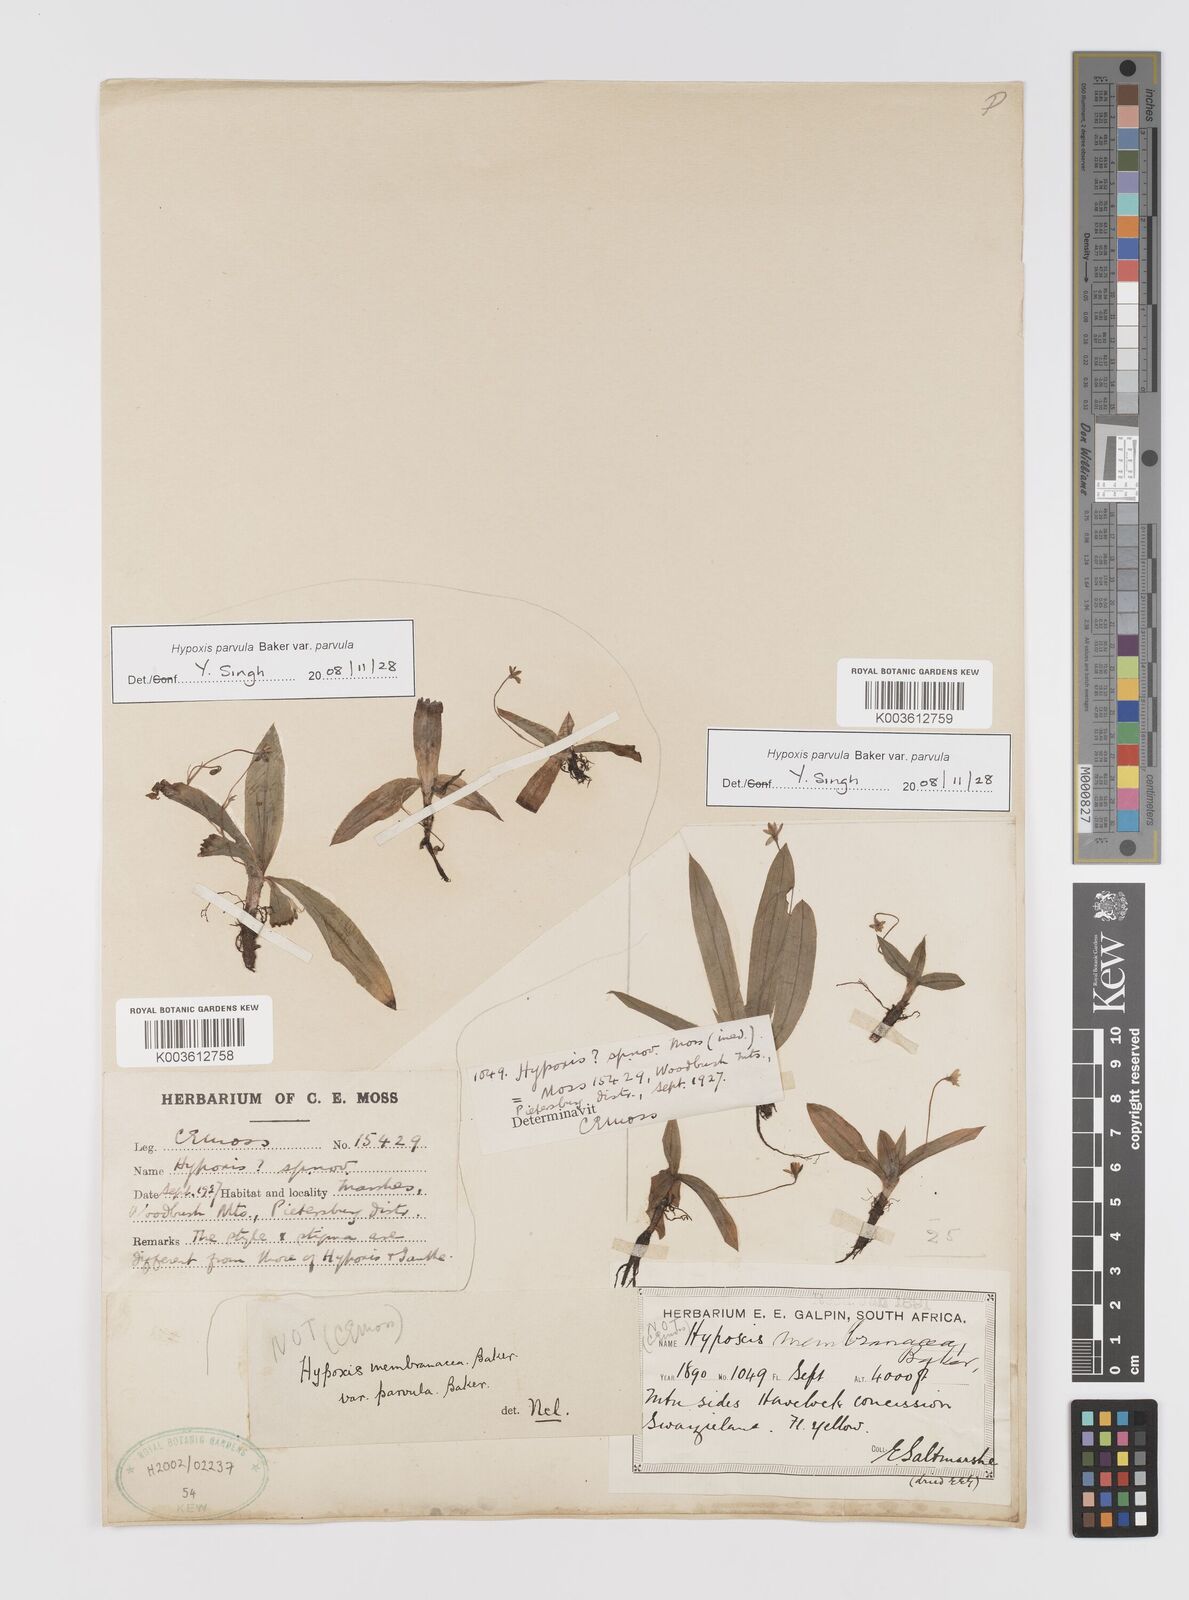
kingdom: Plantae
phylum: Tracheophyta
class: Liliopsida
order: Asparagales
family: Hypoxidaceae
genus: Hypoxis
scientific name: Hypoxis parvula
